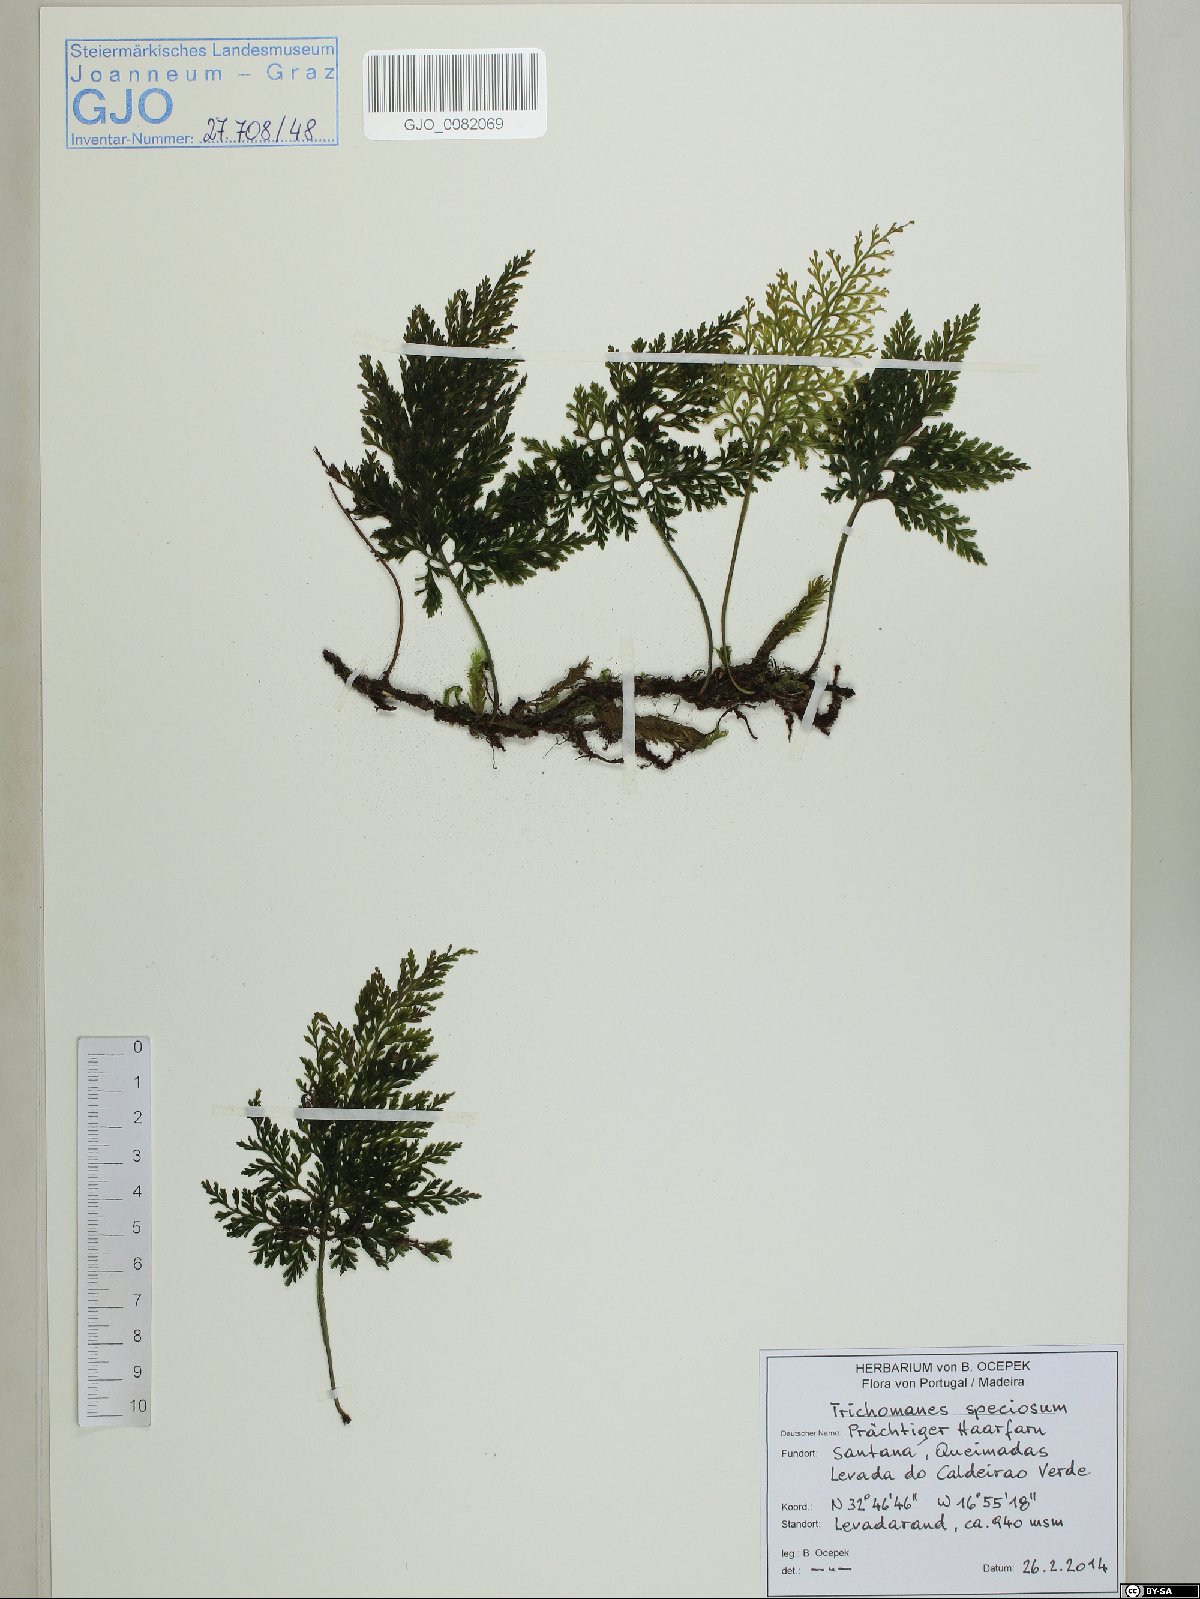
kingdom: Plantae
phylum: Tracheophyta
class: Polypodiopsida
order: Hymenophyllales
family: Hymenophyllaceae
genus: Vandenboschia
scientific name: Vandenboschia speciosa
